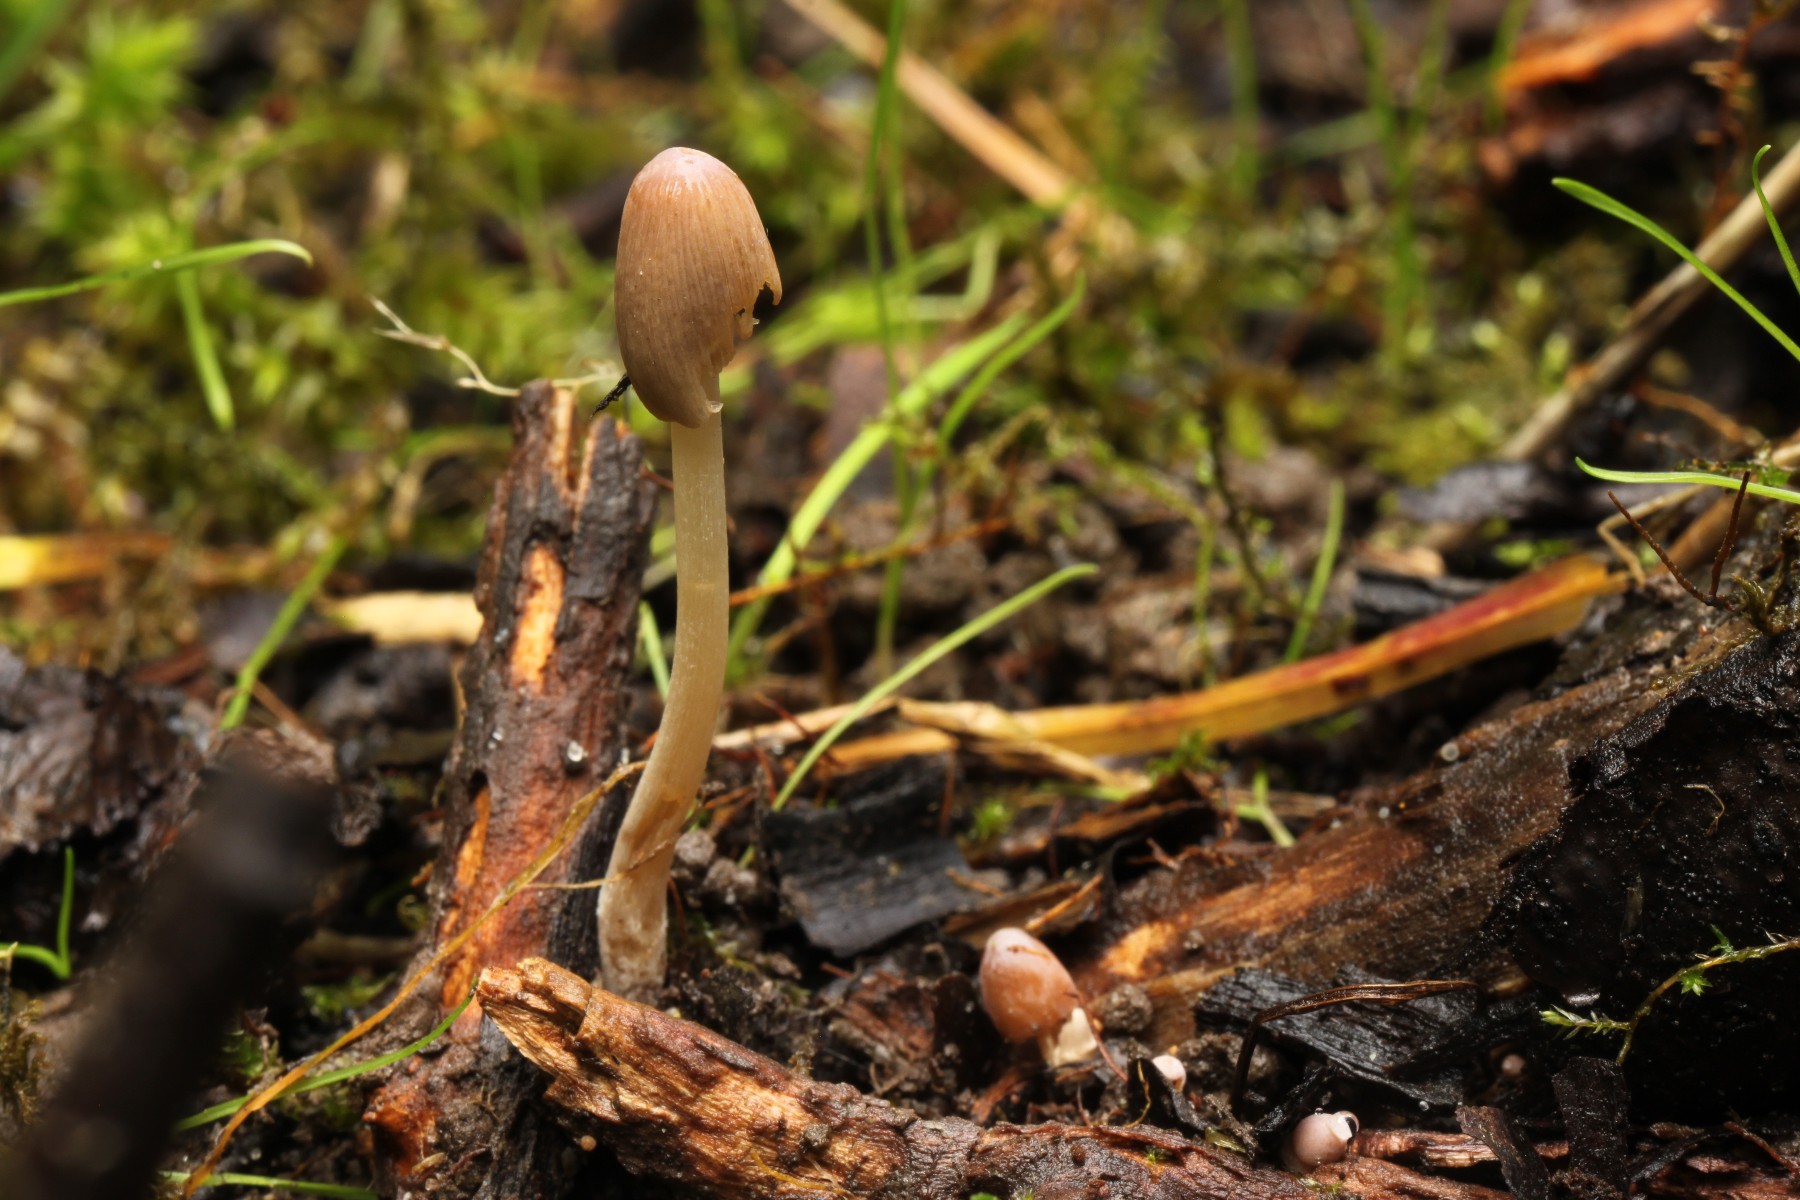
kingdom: Fungi
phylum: Basidiomycota
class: Agaricomycetes
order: Agaricales
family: Psathyrellaceae
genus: Parasola
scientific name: Parasola
